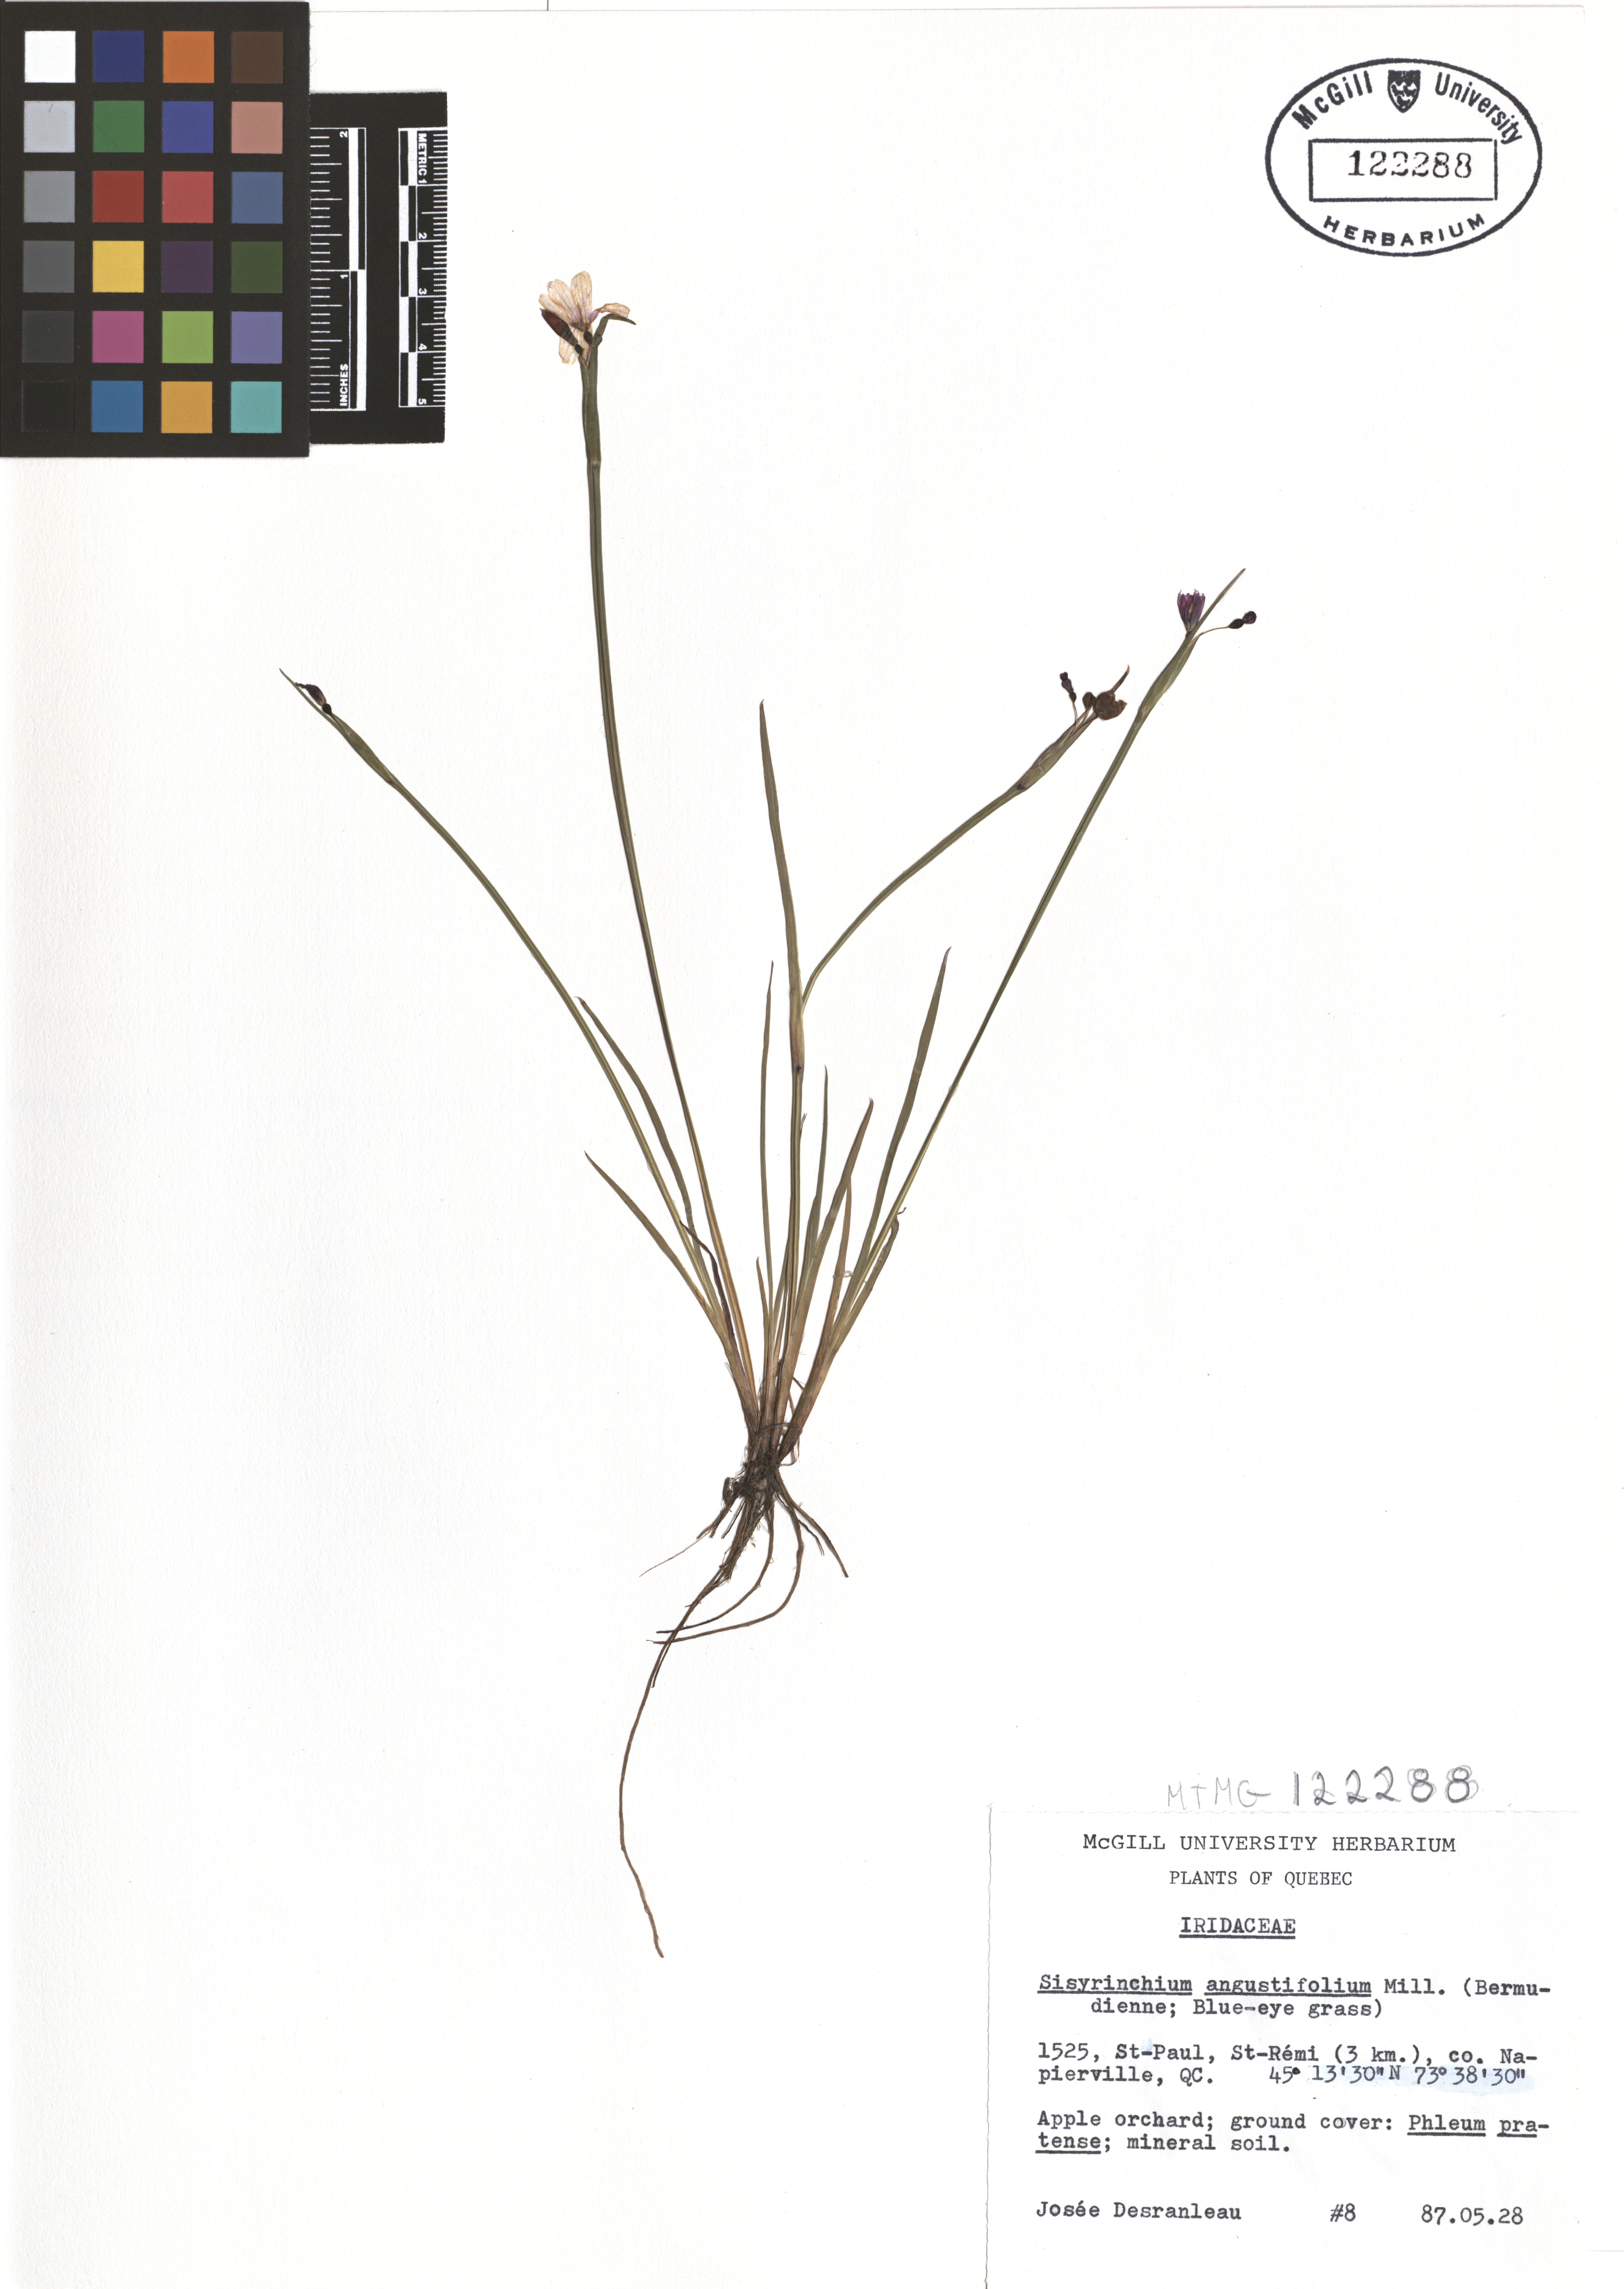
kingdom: Plantae
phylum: Tracheophyta
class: Liliopsida
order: Asparagales
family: Iridaceae
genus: Sisyrinchium
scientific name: Sisyrinchium angustifolium
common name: Narrow-leaf blue-eyed-grass
